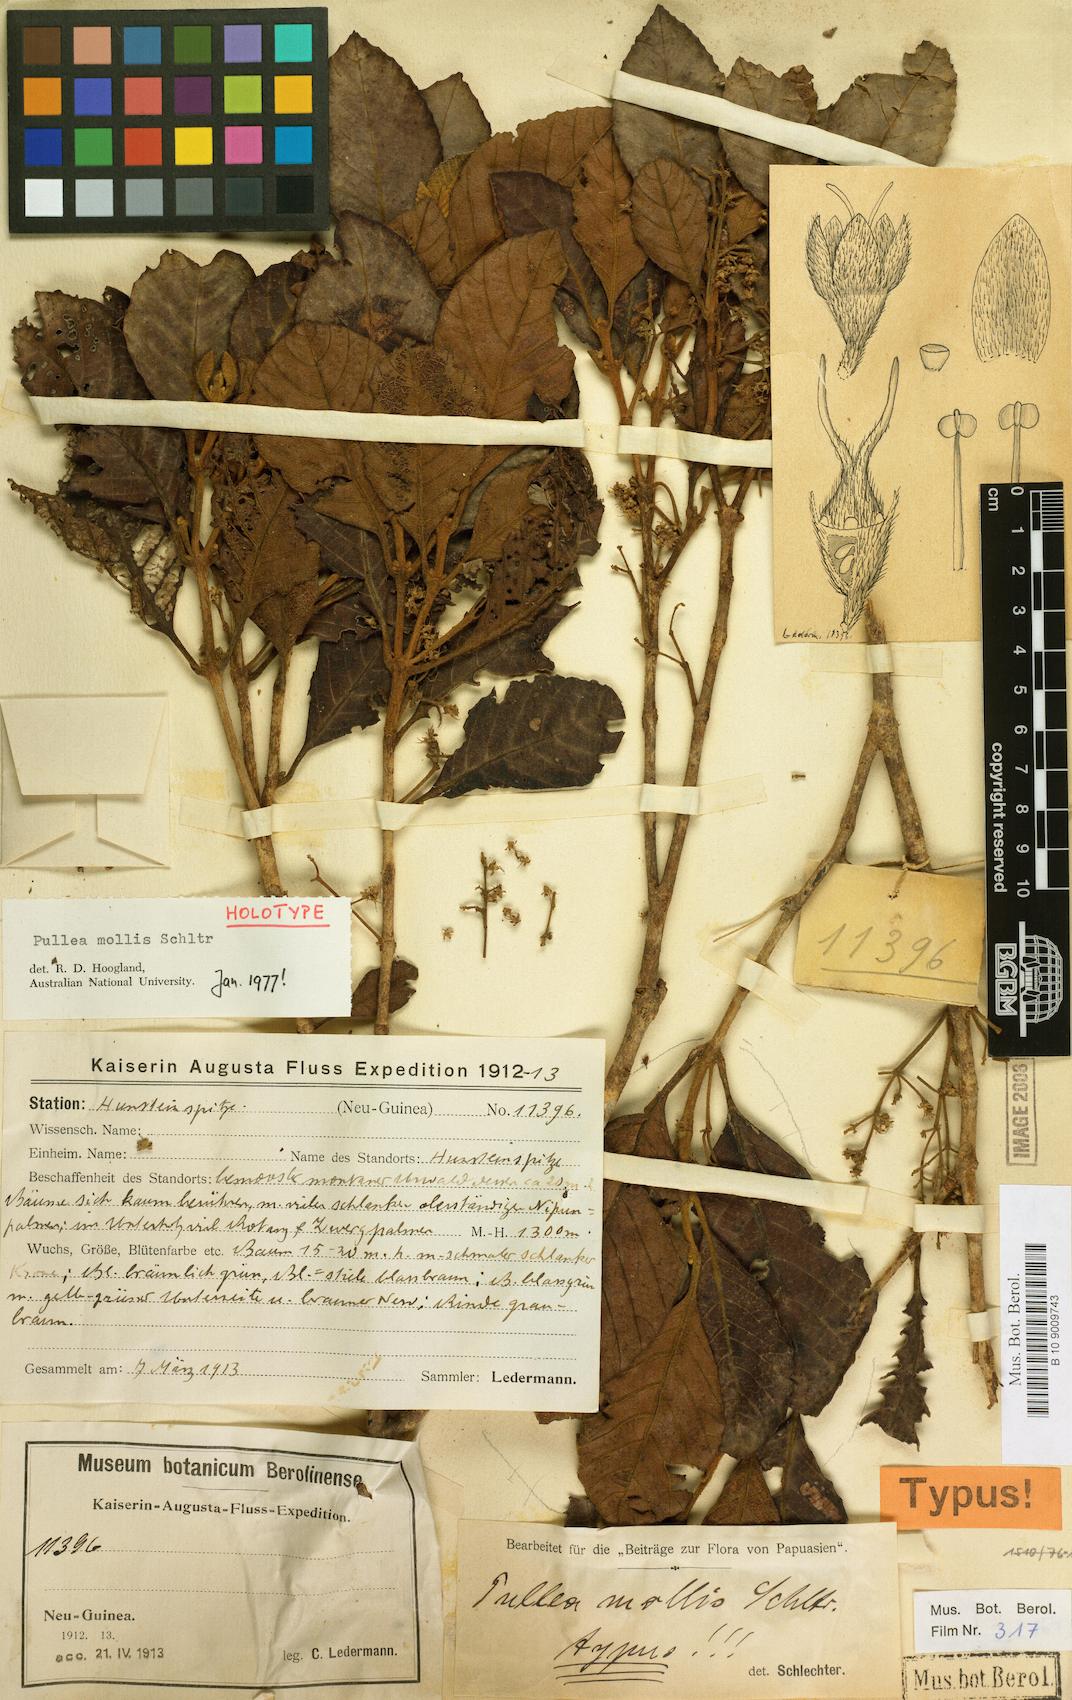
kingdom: Plantae
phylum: Tracheophyta
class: Magnoliopsida
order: Oxalidales
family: Cunoniaceae
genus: Pullea
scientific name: Pullea mollis
